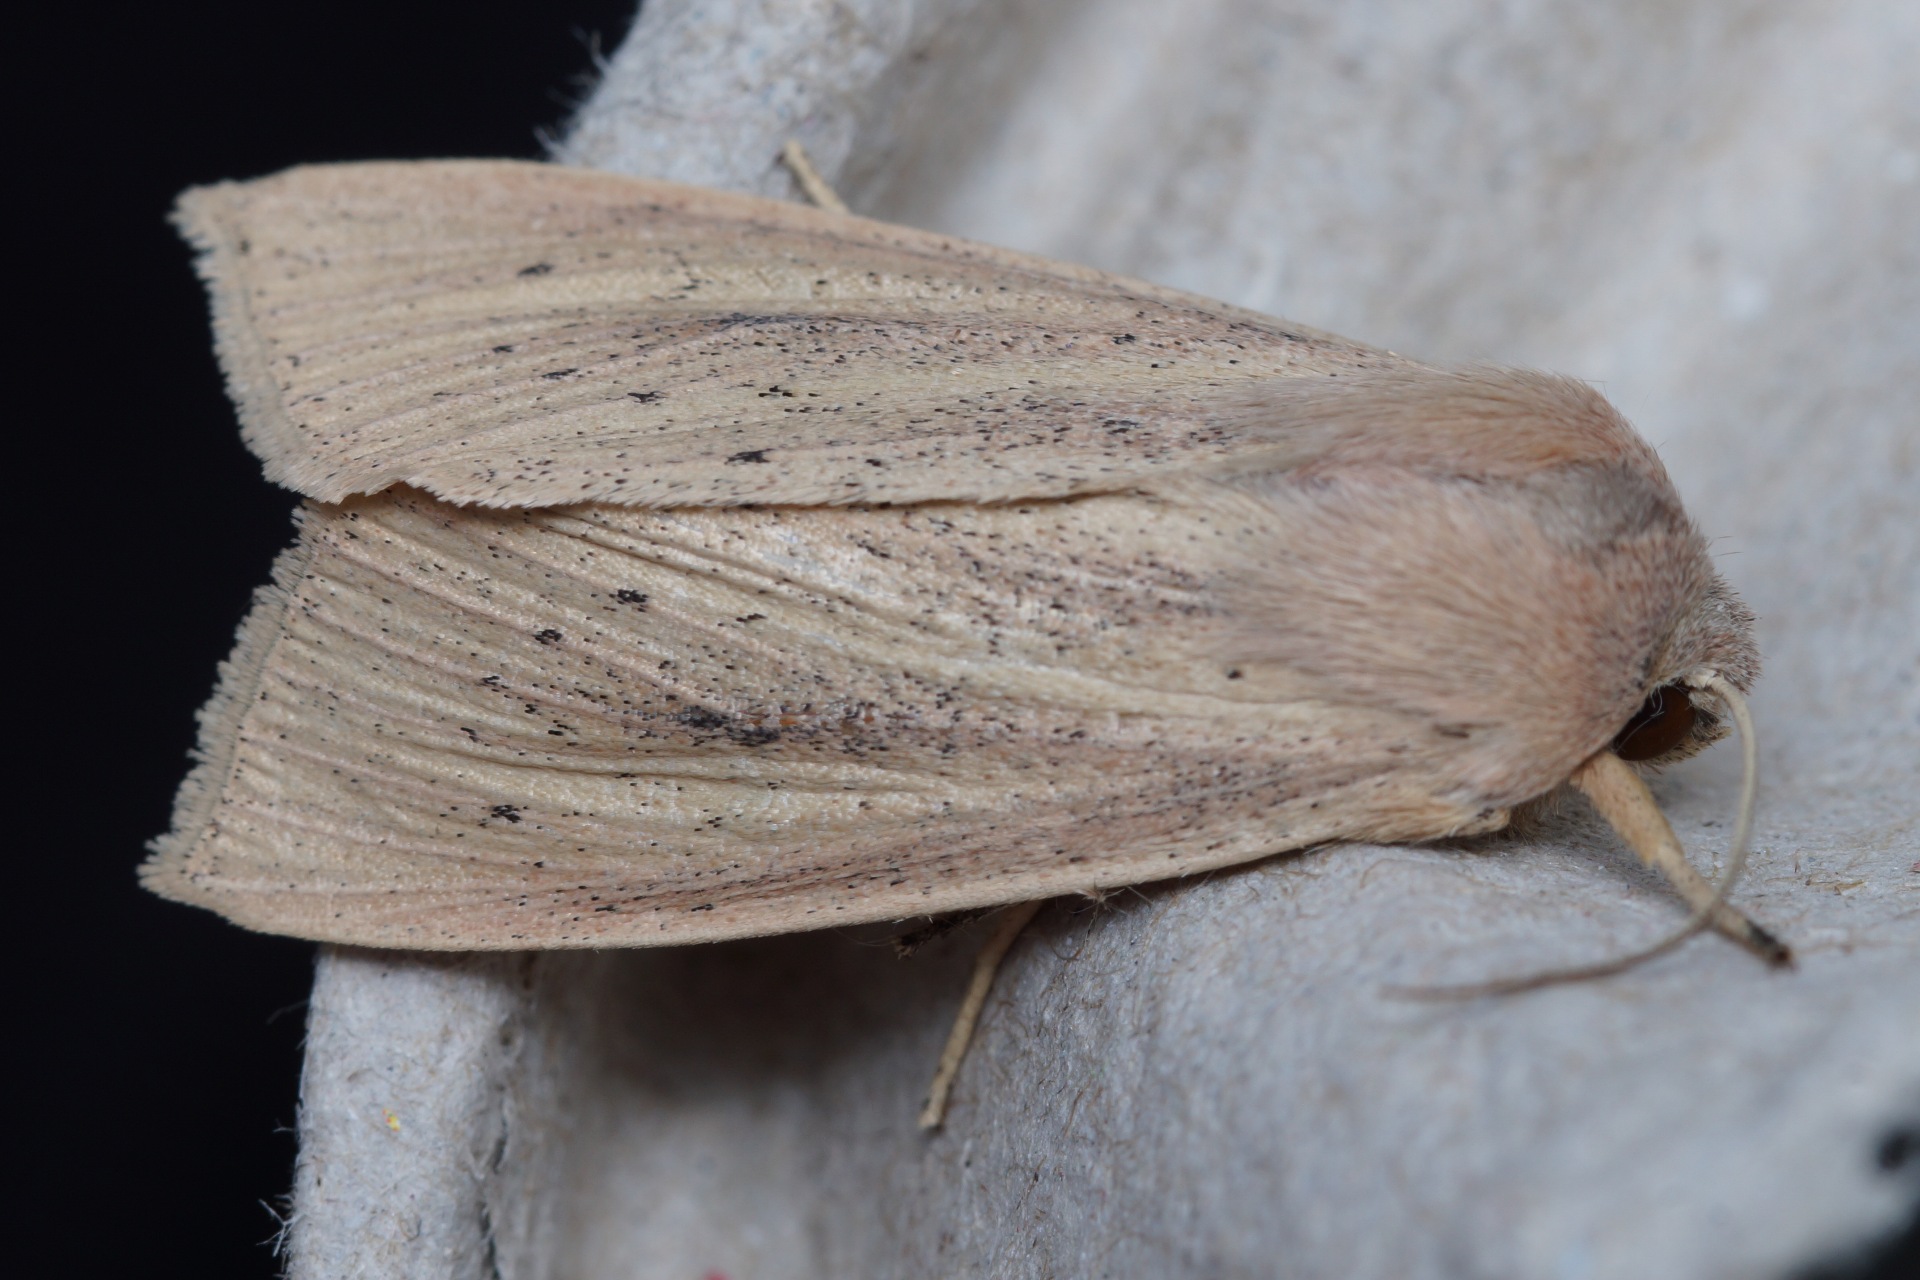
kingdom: Animalia
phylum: Arthropoda
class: Insecta
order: Lepidoptera
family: Noctuidae
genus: Rhizedra
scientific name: Rhizedra lutosa
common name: Stor sivugle
